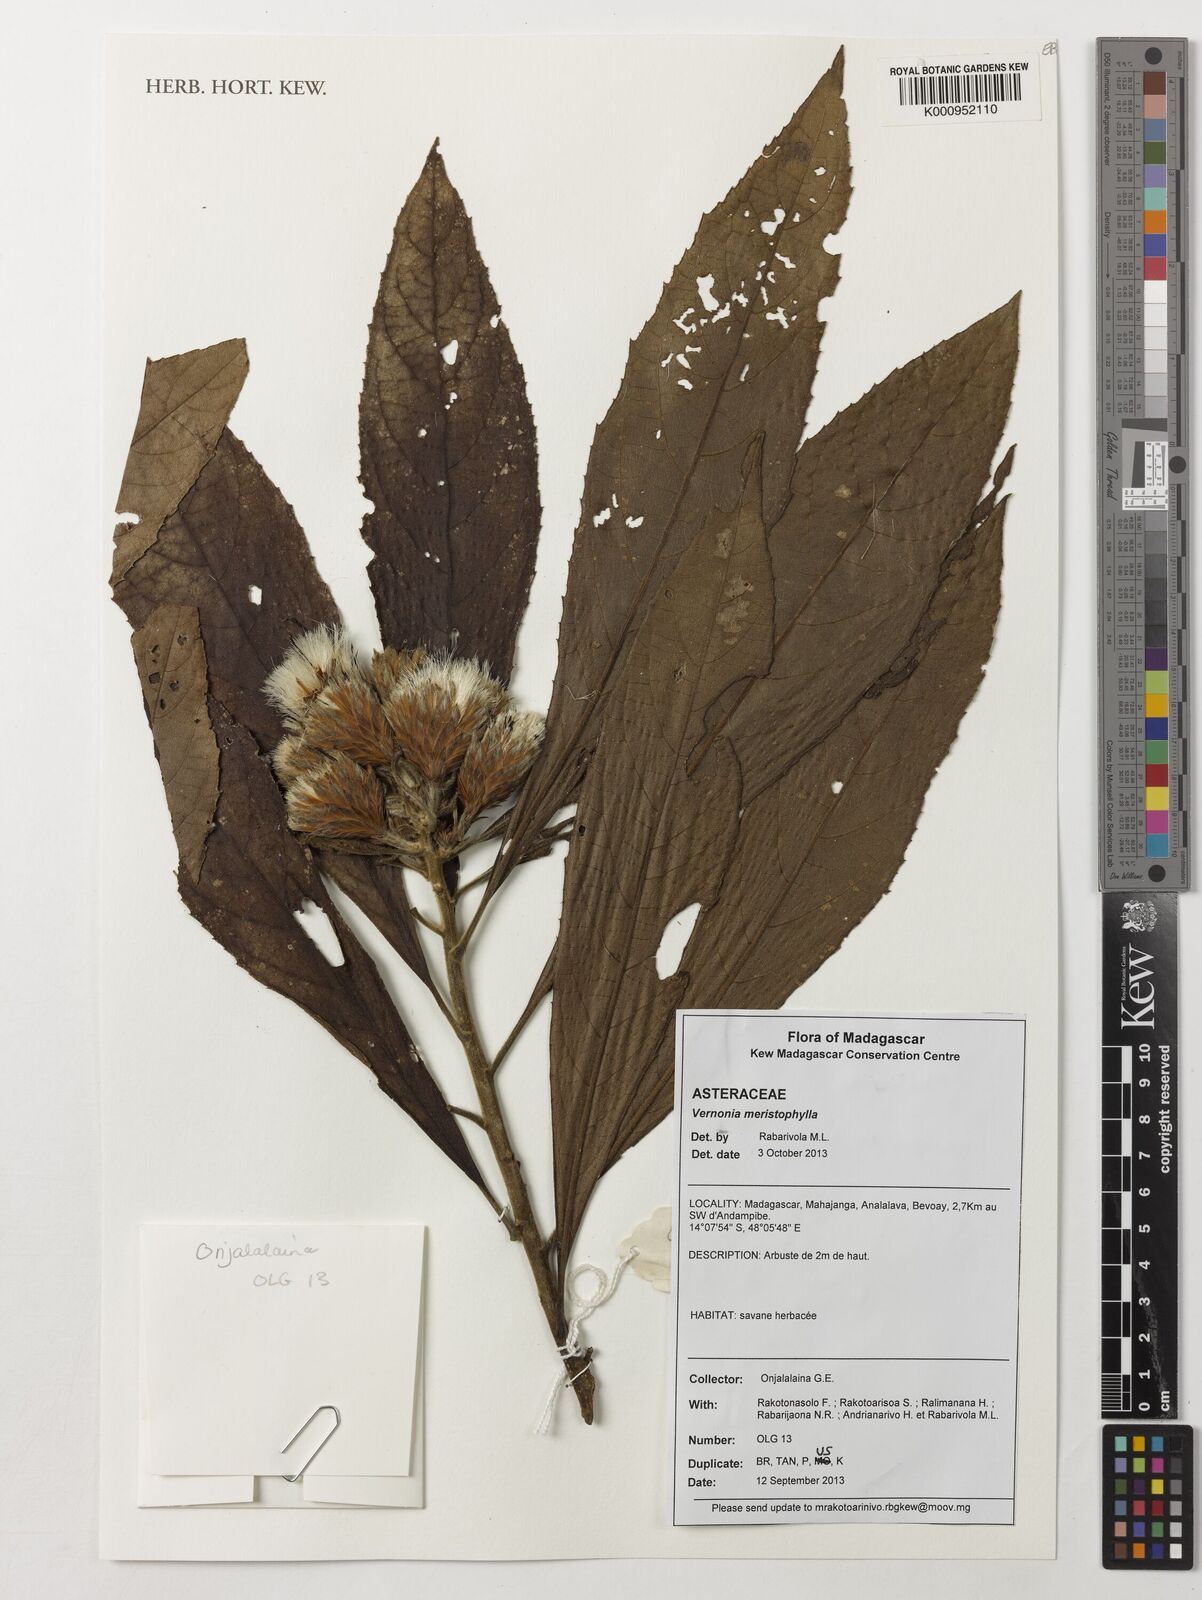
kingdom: Plantae
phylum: Tracheophyta
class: Magnoliopsida
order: Asterales
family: Asteraceae
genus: Vernonia
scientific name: Vernonia
